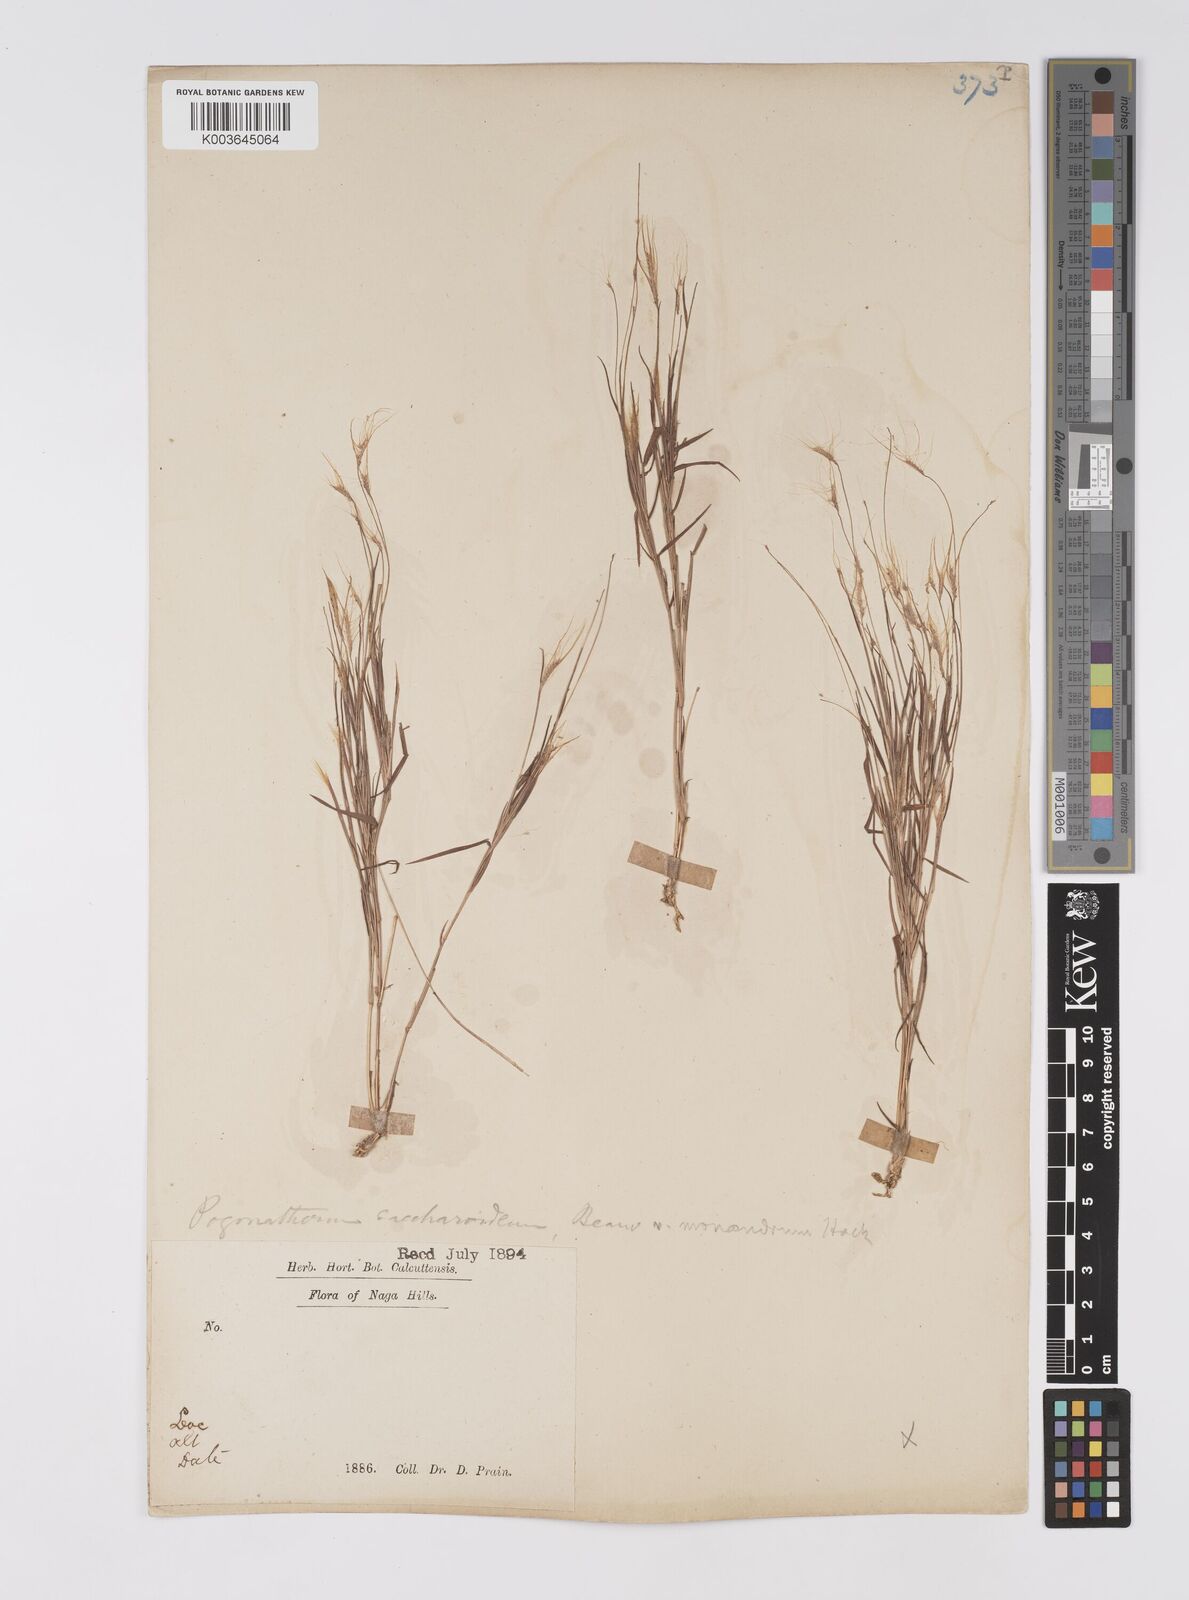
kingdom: Plantae
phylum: Tracheophyta
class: Liliopsida
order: Poales
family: Poaceae
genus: Pogonatherum
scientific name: Pogonatherum crinitum
